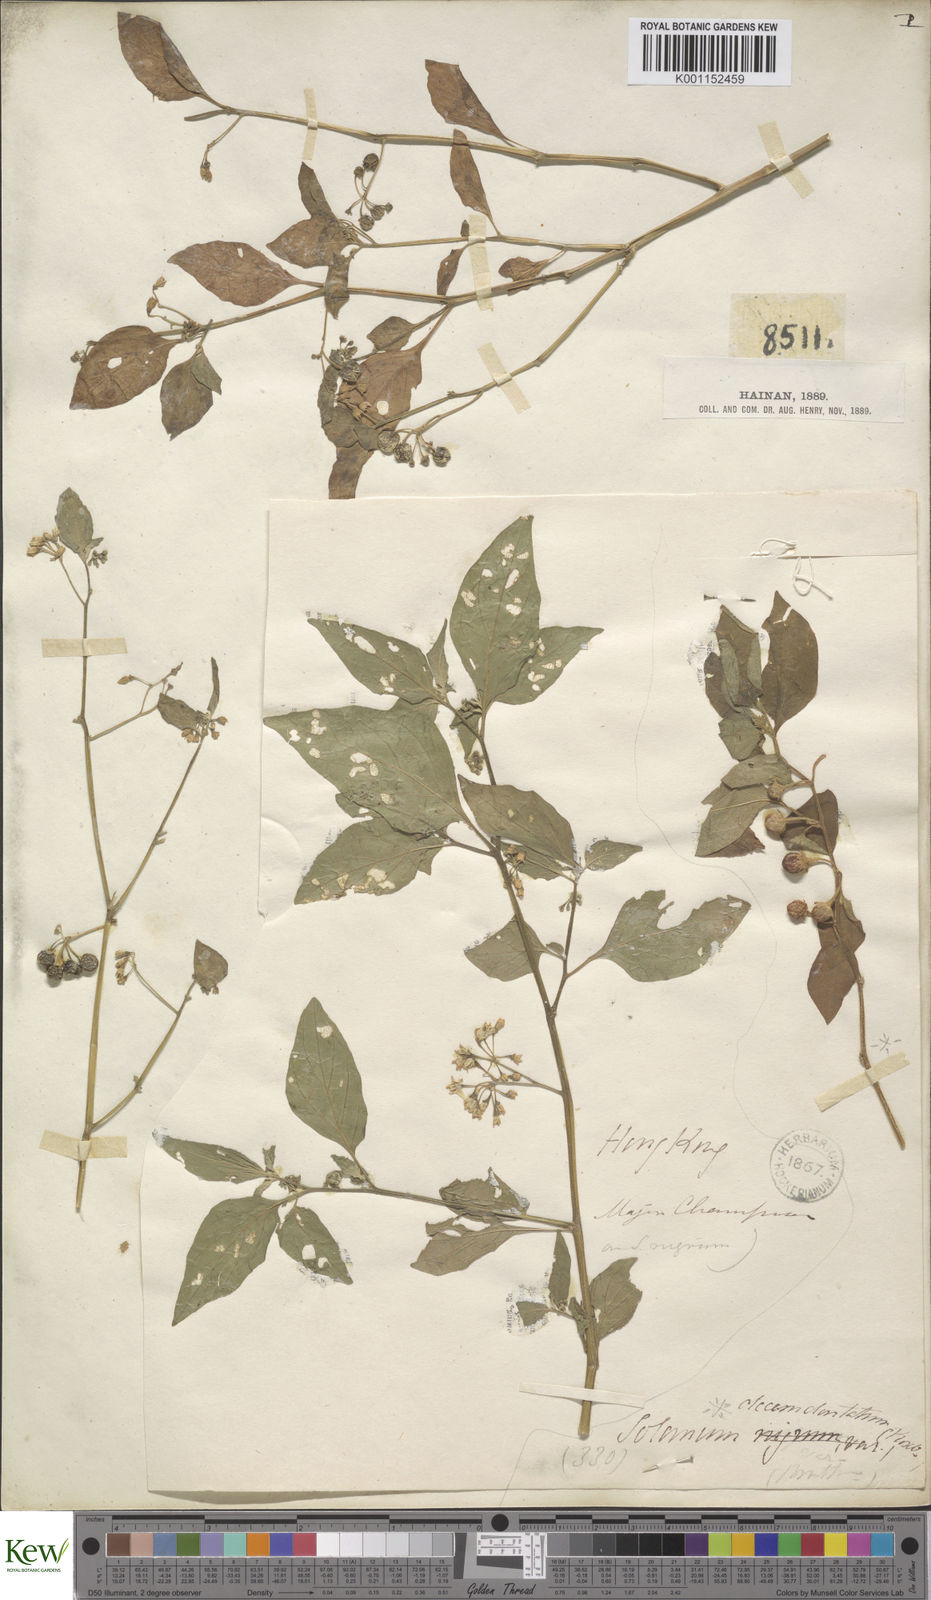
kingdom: Plantae
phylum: Tracheophyta
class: Magnoliopsida
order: Solanales
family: Solanaceae
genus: Solanum
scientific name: Solanum nigrum
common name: Black nightshade
